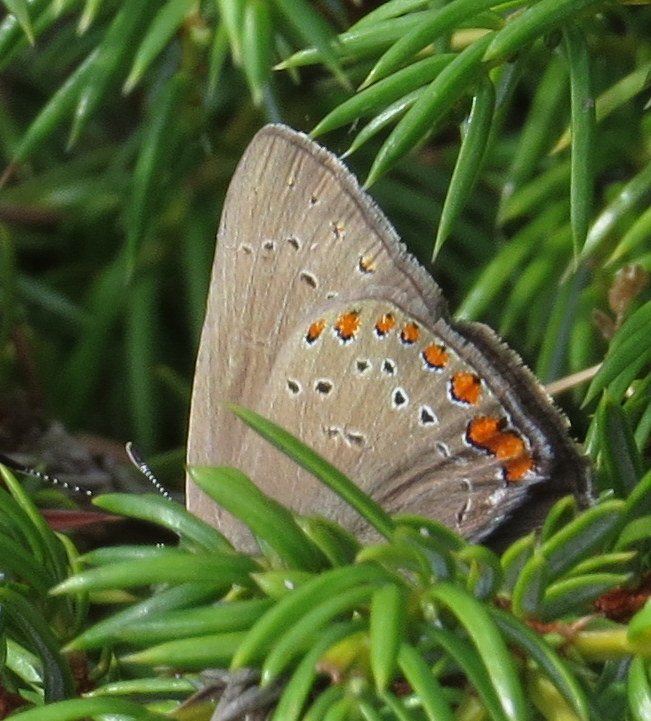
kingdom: Animalia
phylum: Arthropoda
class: Insecta
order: Lepidoptera
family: Lycaenidae
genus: Harkenclenus
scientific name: Harkenclenus titus
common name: Coral Hairstreak
